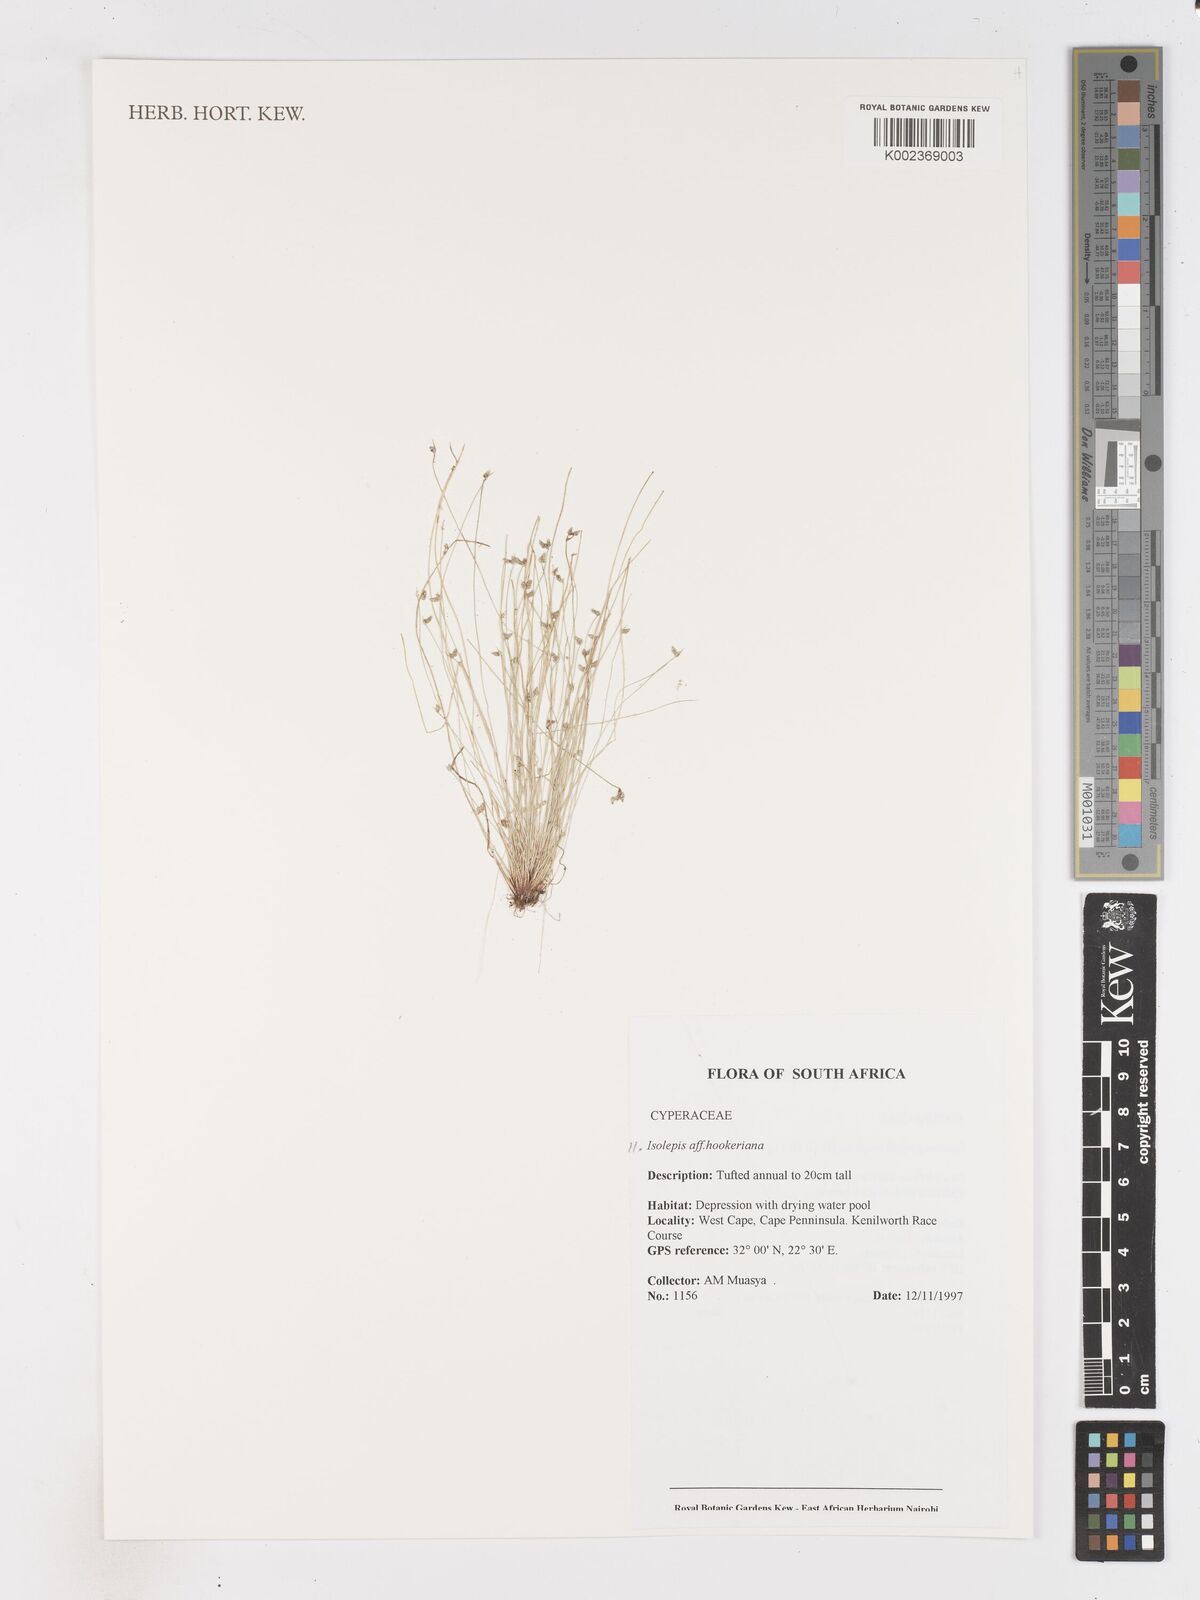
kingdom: Plantae
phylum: Tracheophyta
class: Liliopsida
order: Poales
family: Cyperaceae
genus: Isolepis
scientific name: Isolepis multicaulis
